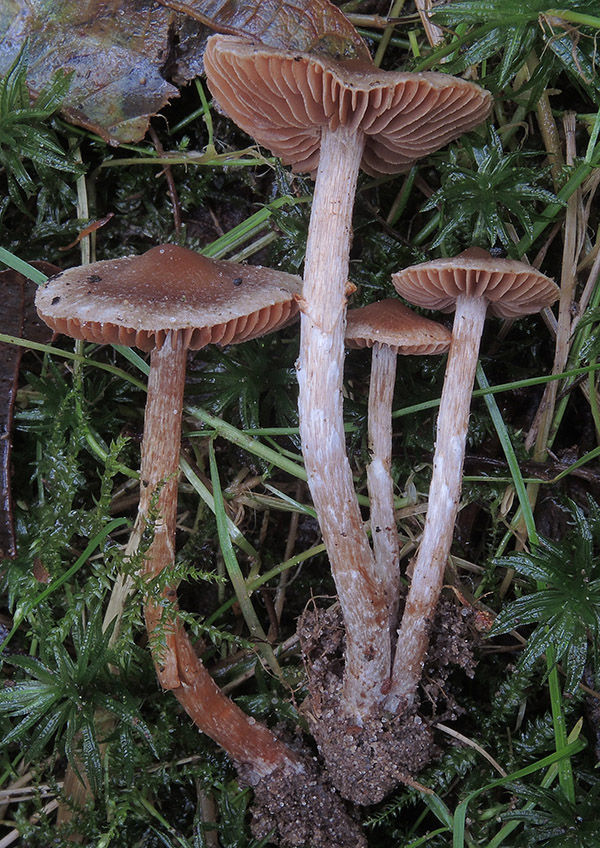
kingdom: Fungi
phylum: Basidiomycota
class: Agaricomycetes
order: Agaricales
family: Cortinariaceae
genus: Cortinarius
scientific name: Cortinarius geraniolens
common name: geranium-slørhat
